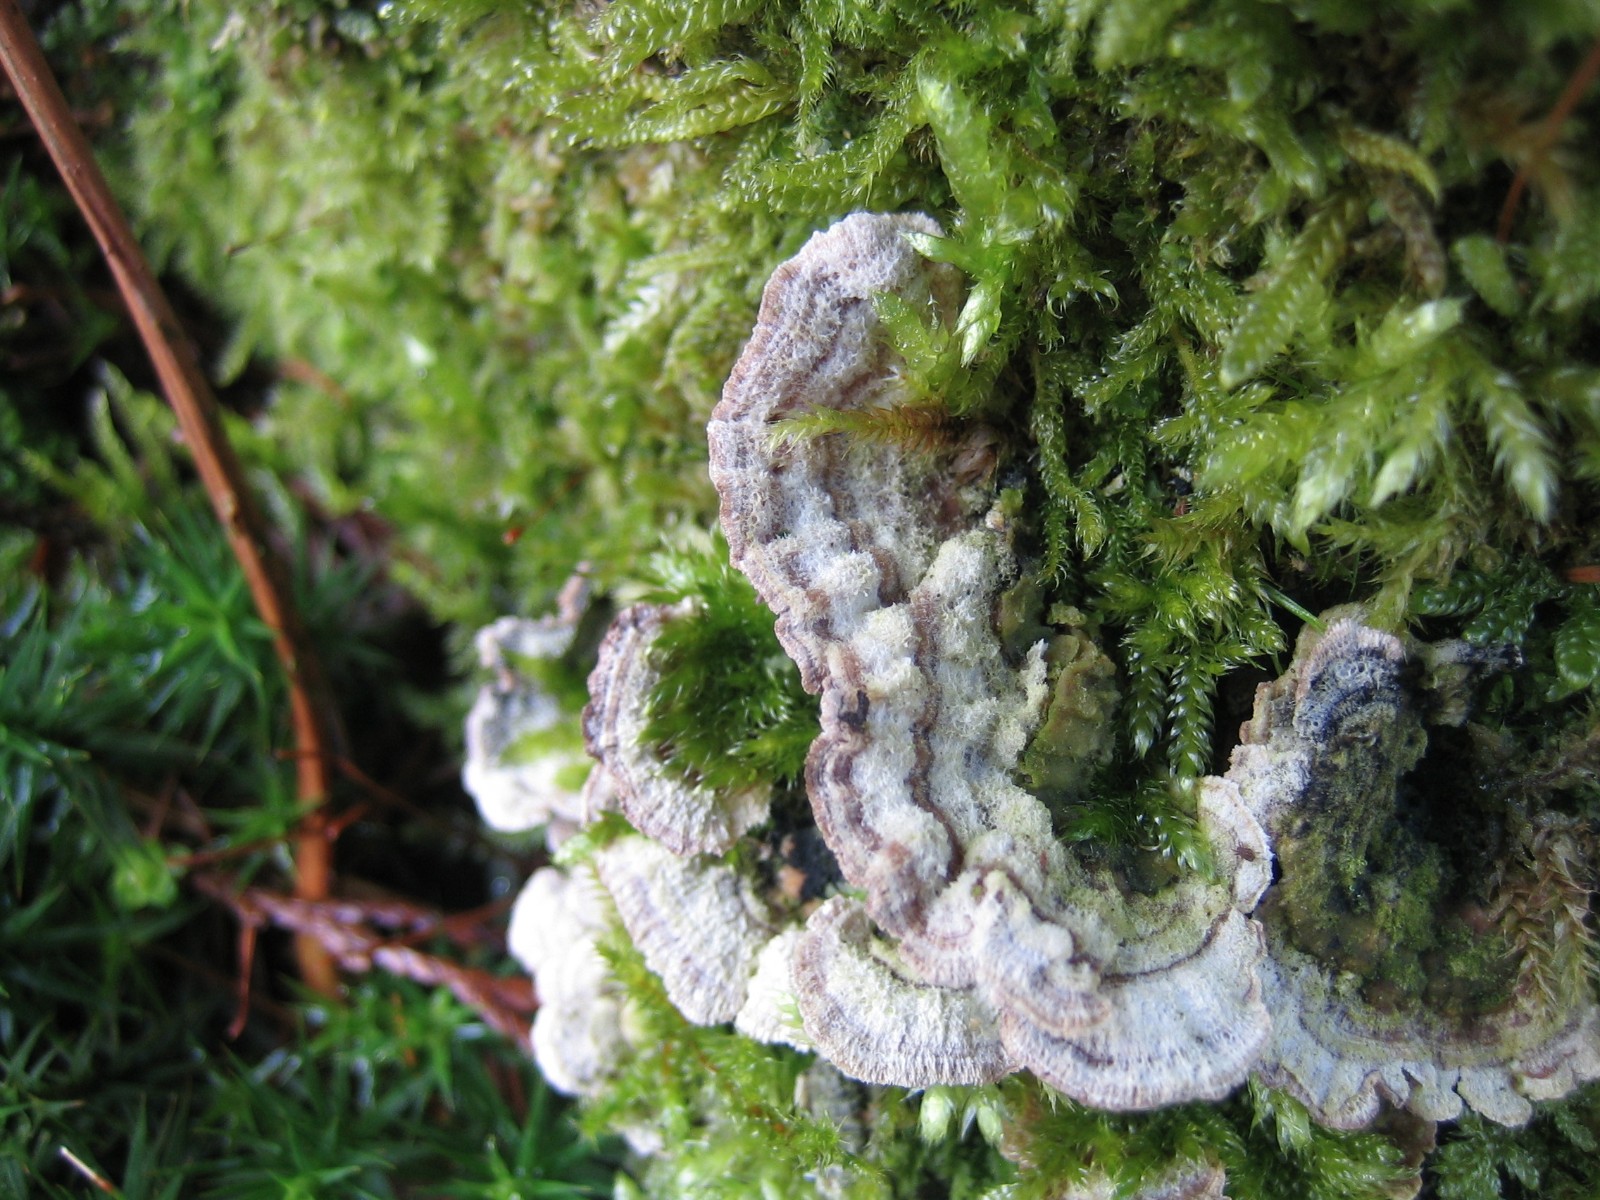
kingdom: Fungi
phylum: Basidiomycota
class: Agaricomycetes
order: Hymenochaetales
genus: Trichaptum
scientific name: Trichaptum abietinum
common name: almindelig violporesvamp
